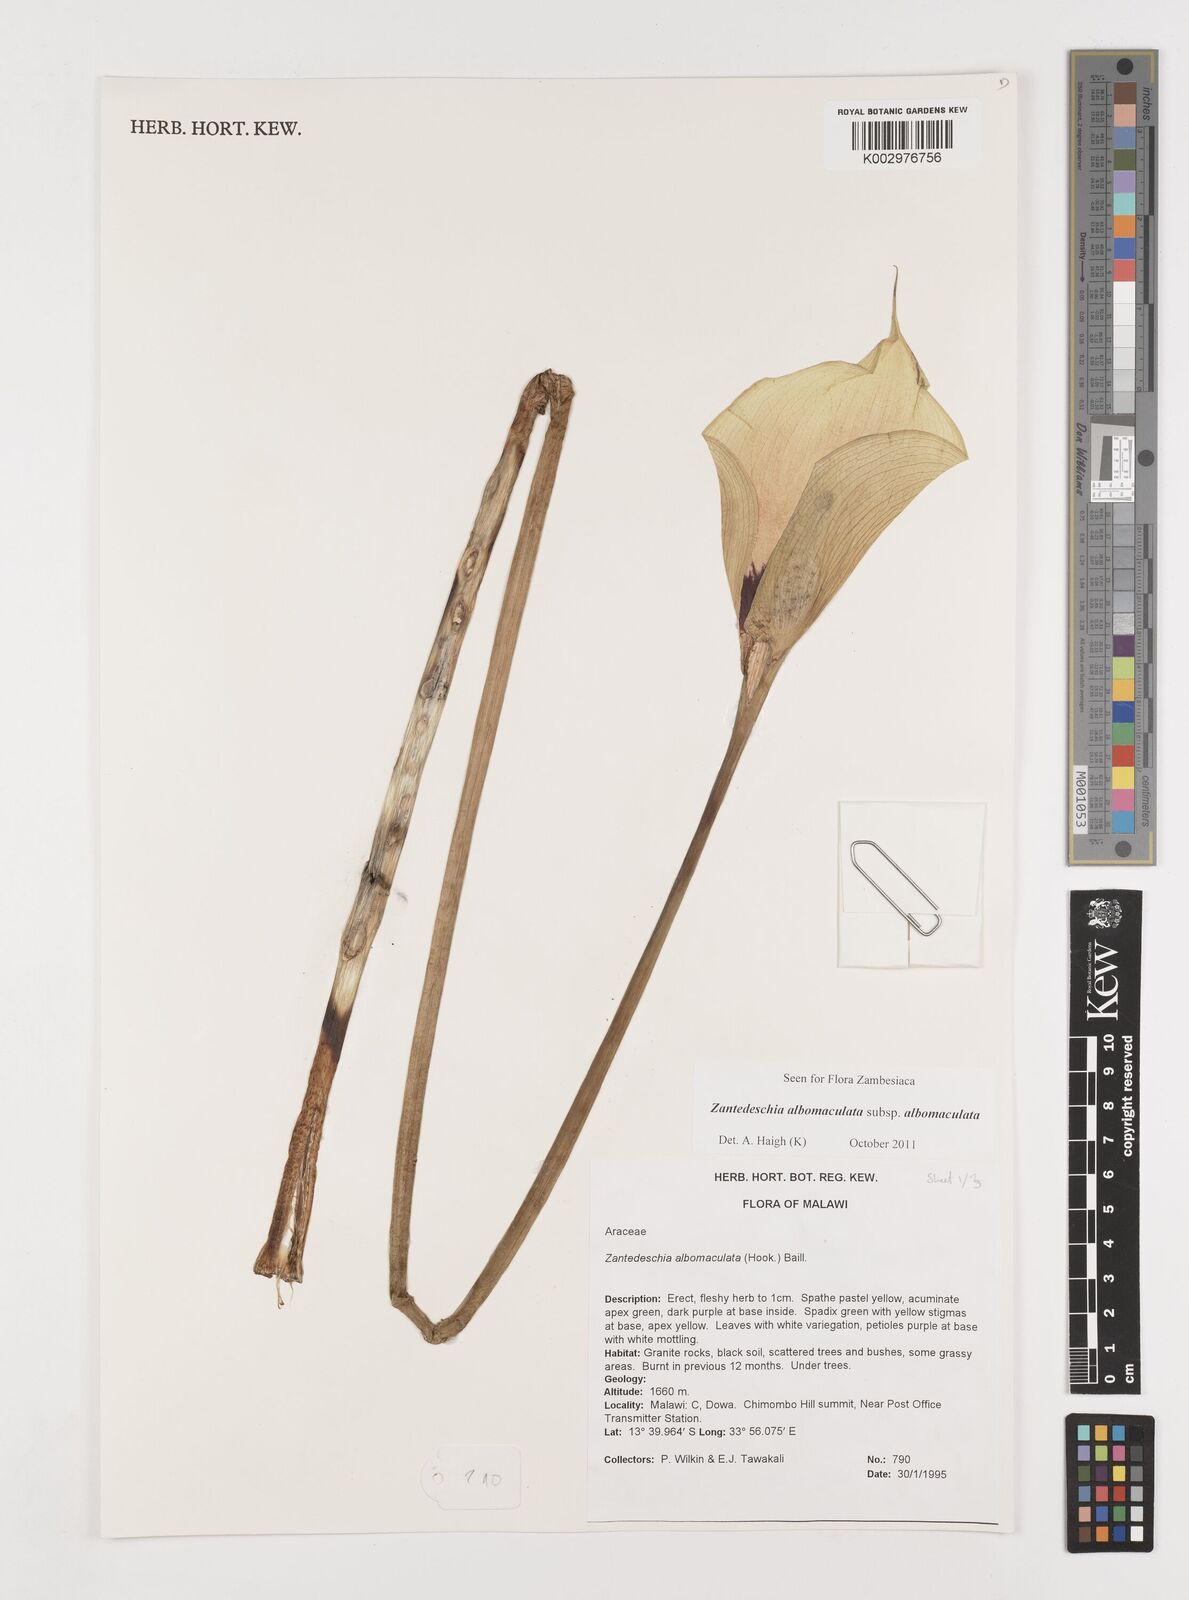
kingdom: Plantae
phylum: Tracheophyta
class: Liliopsida
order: Alismatales
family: Araceae
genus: Zantedeschia
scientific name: Zantedeschia albomaculata
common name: Spotted calla lily
